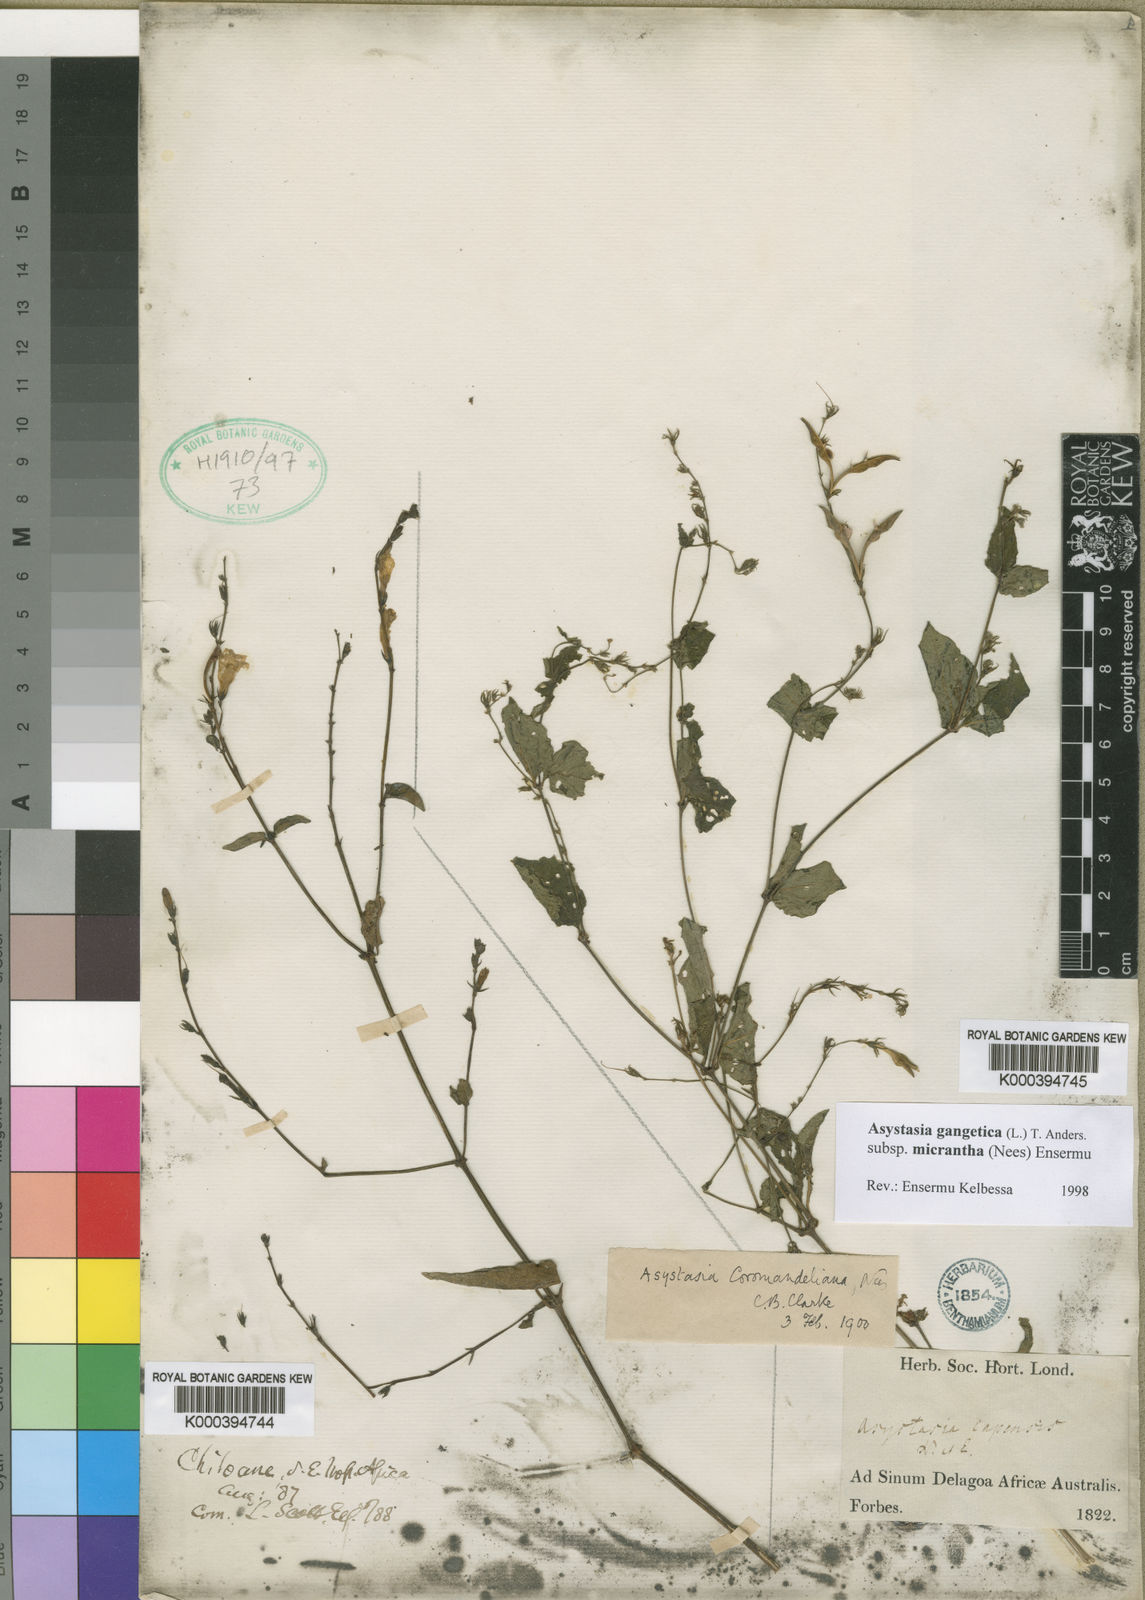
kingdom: Plantae
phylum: Tracheophyta
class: Magnoliopsida
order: Lamiales
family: Acanthaceae
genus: Asystasia
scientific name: Asystasia gangetica
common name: Chinese violet
